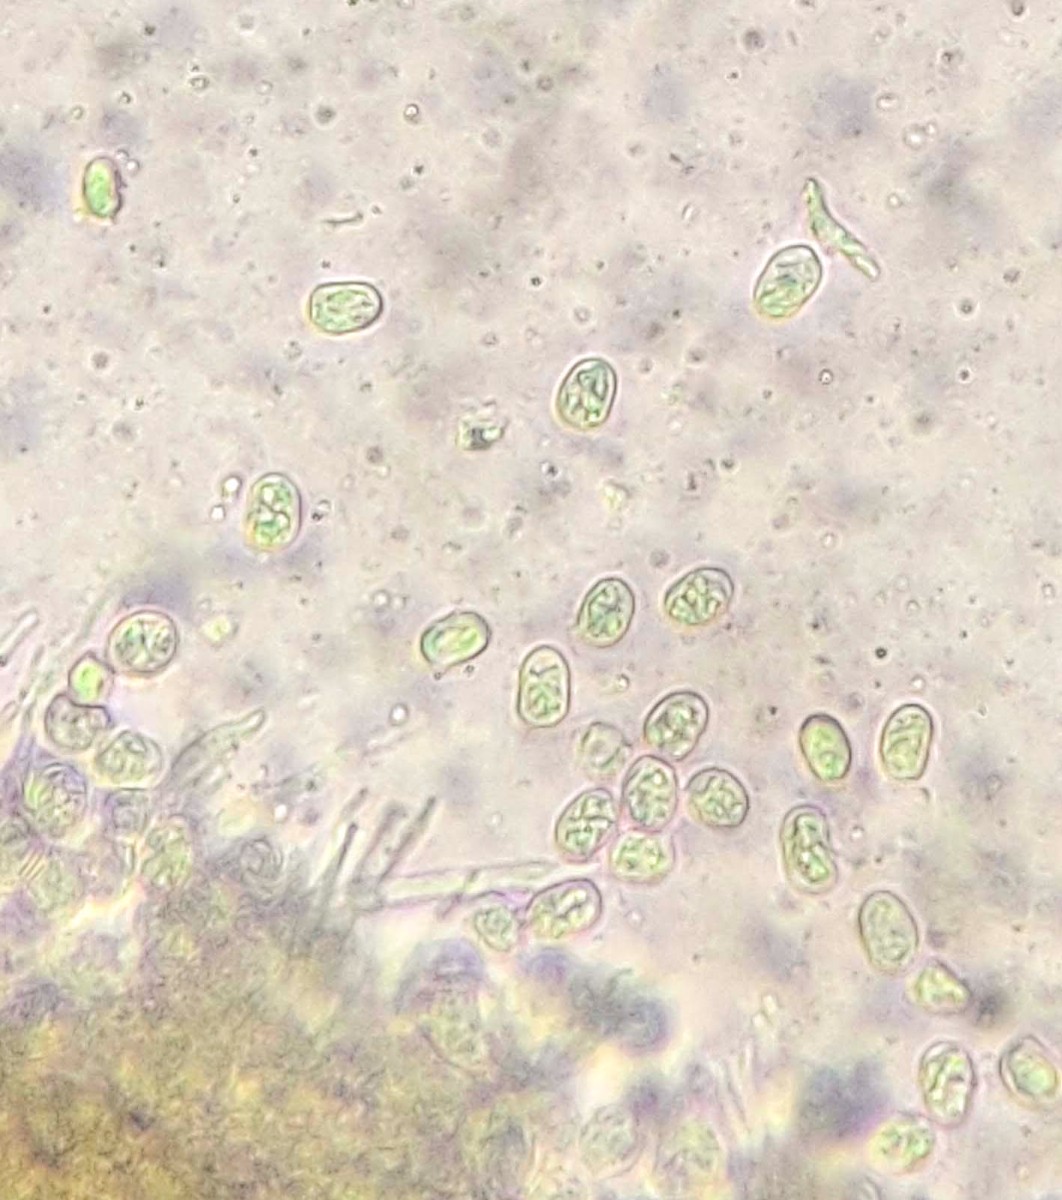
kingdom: Fungi
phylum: Basidiomycota
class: Agaricomycetes
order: Russulales
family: Peniophoraceae
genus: Gloiothele
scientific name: Gloiothele lactescens
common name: bitter olieskind
